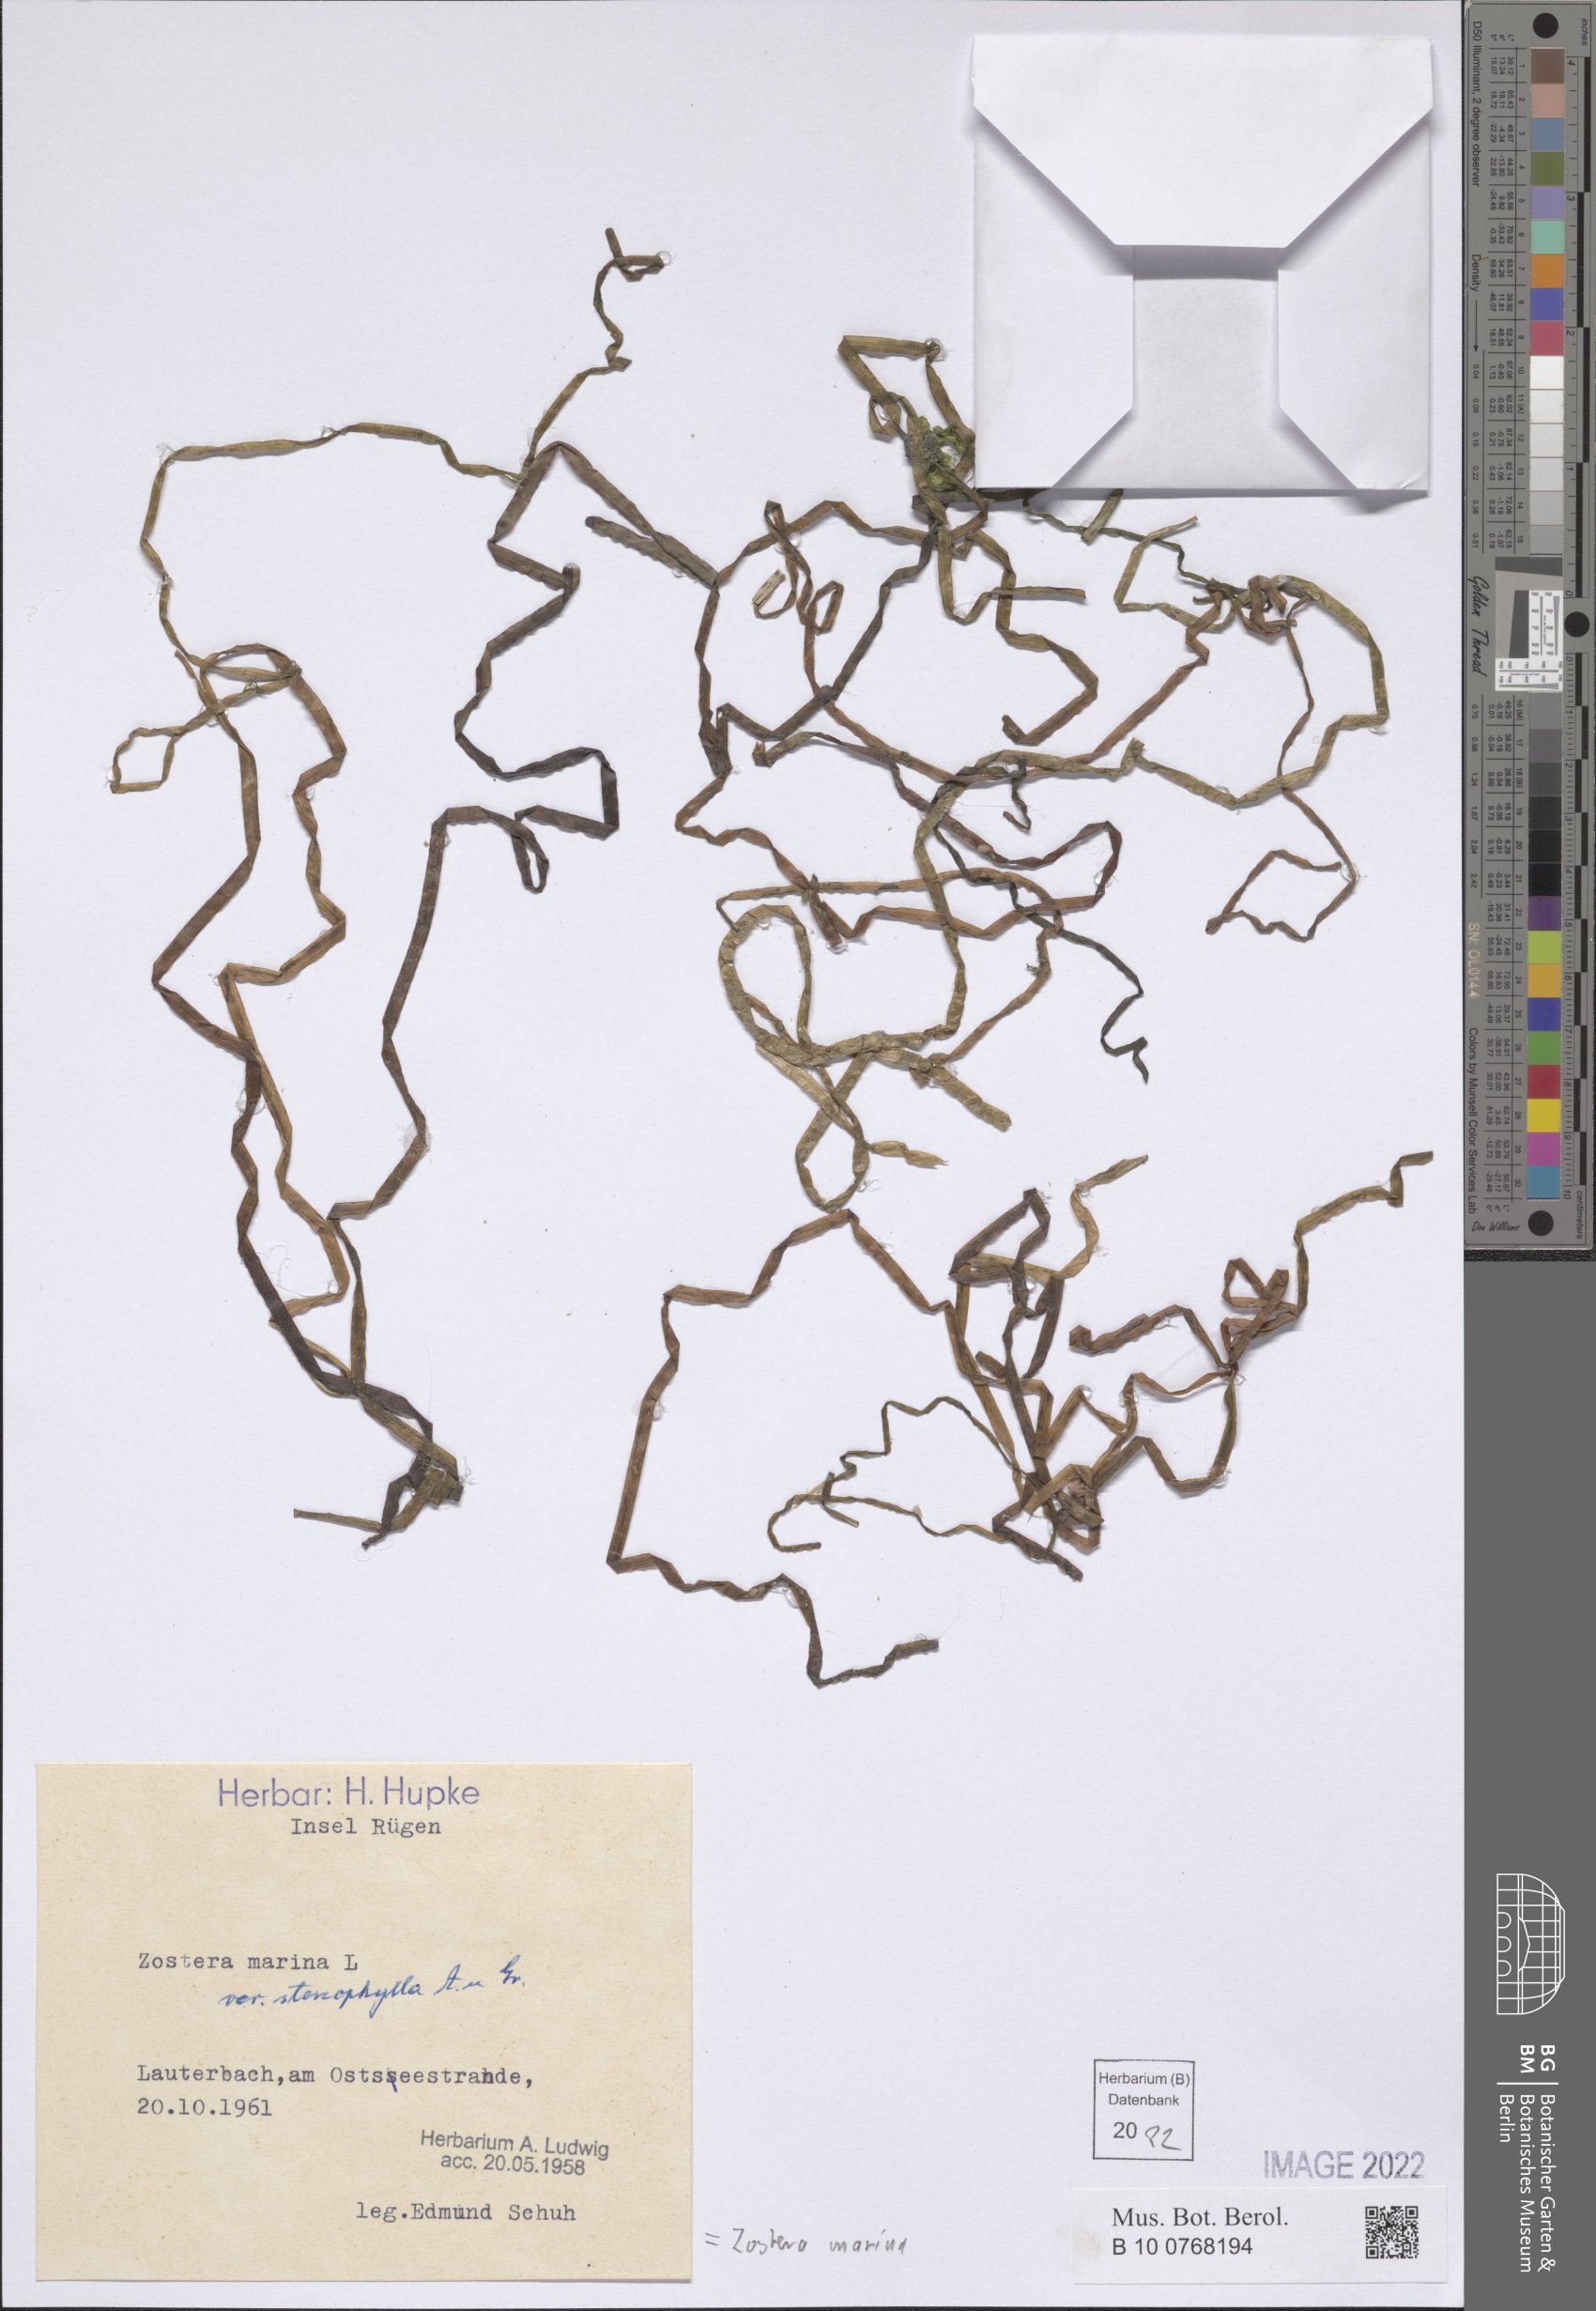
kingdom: Plantae
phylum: Tracheophyta
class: Liliopsida
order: Alismatales
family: Zosteraceae
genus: Zostera
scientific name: Zostera marina
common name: Eelgrass
